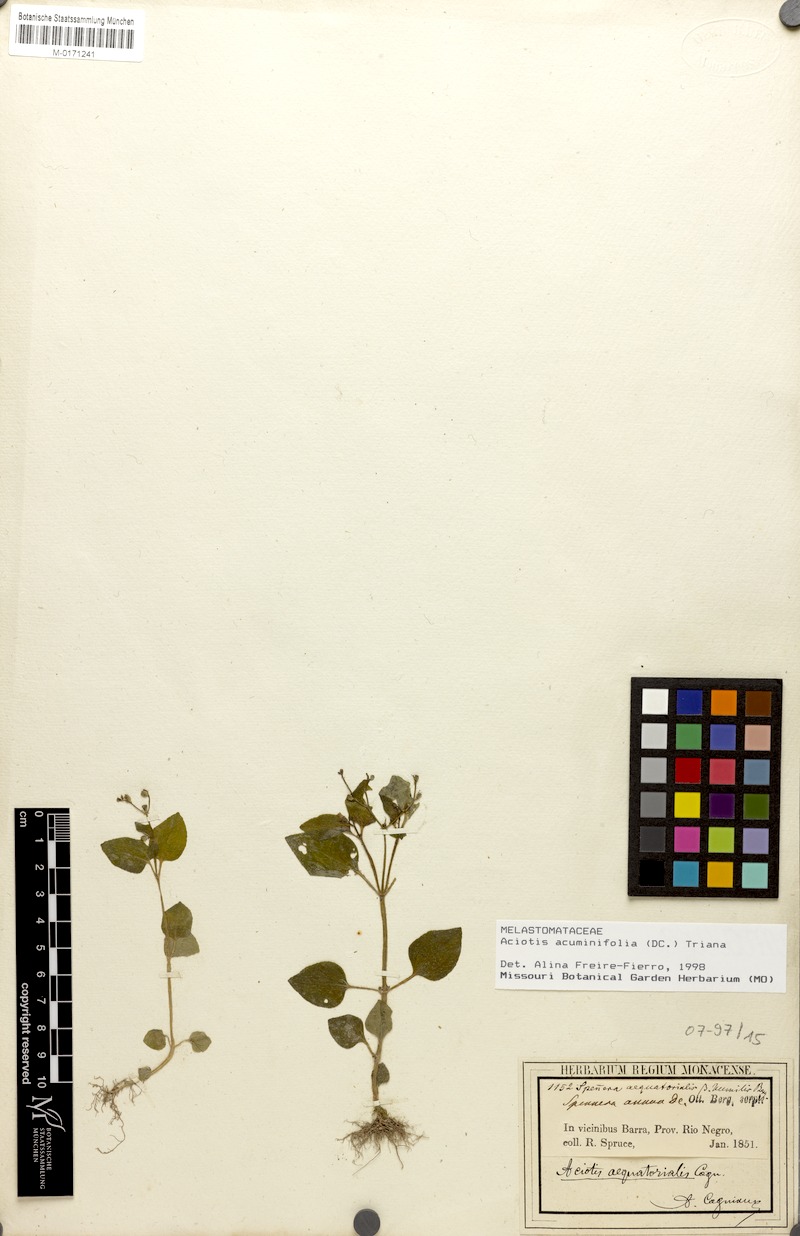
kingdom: Plantae
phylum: Tracheophyta
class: Magnoliopsida
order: Myrtales
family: Melastomataceae
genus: Aciotis
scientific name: Aciotis acuminifolia
